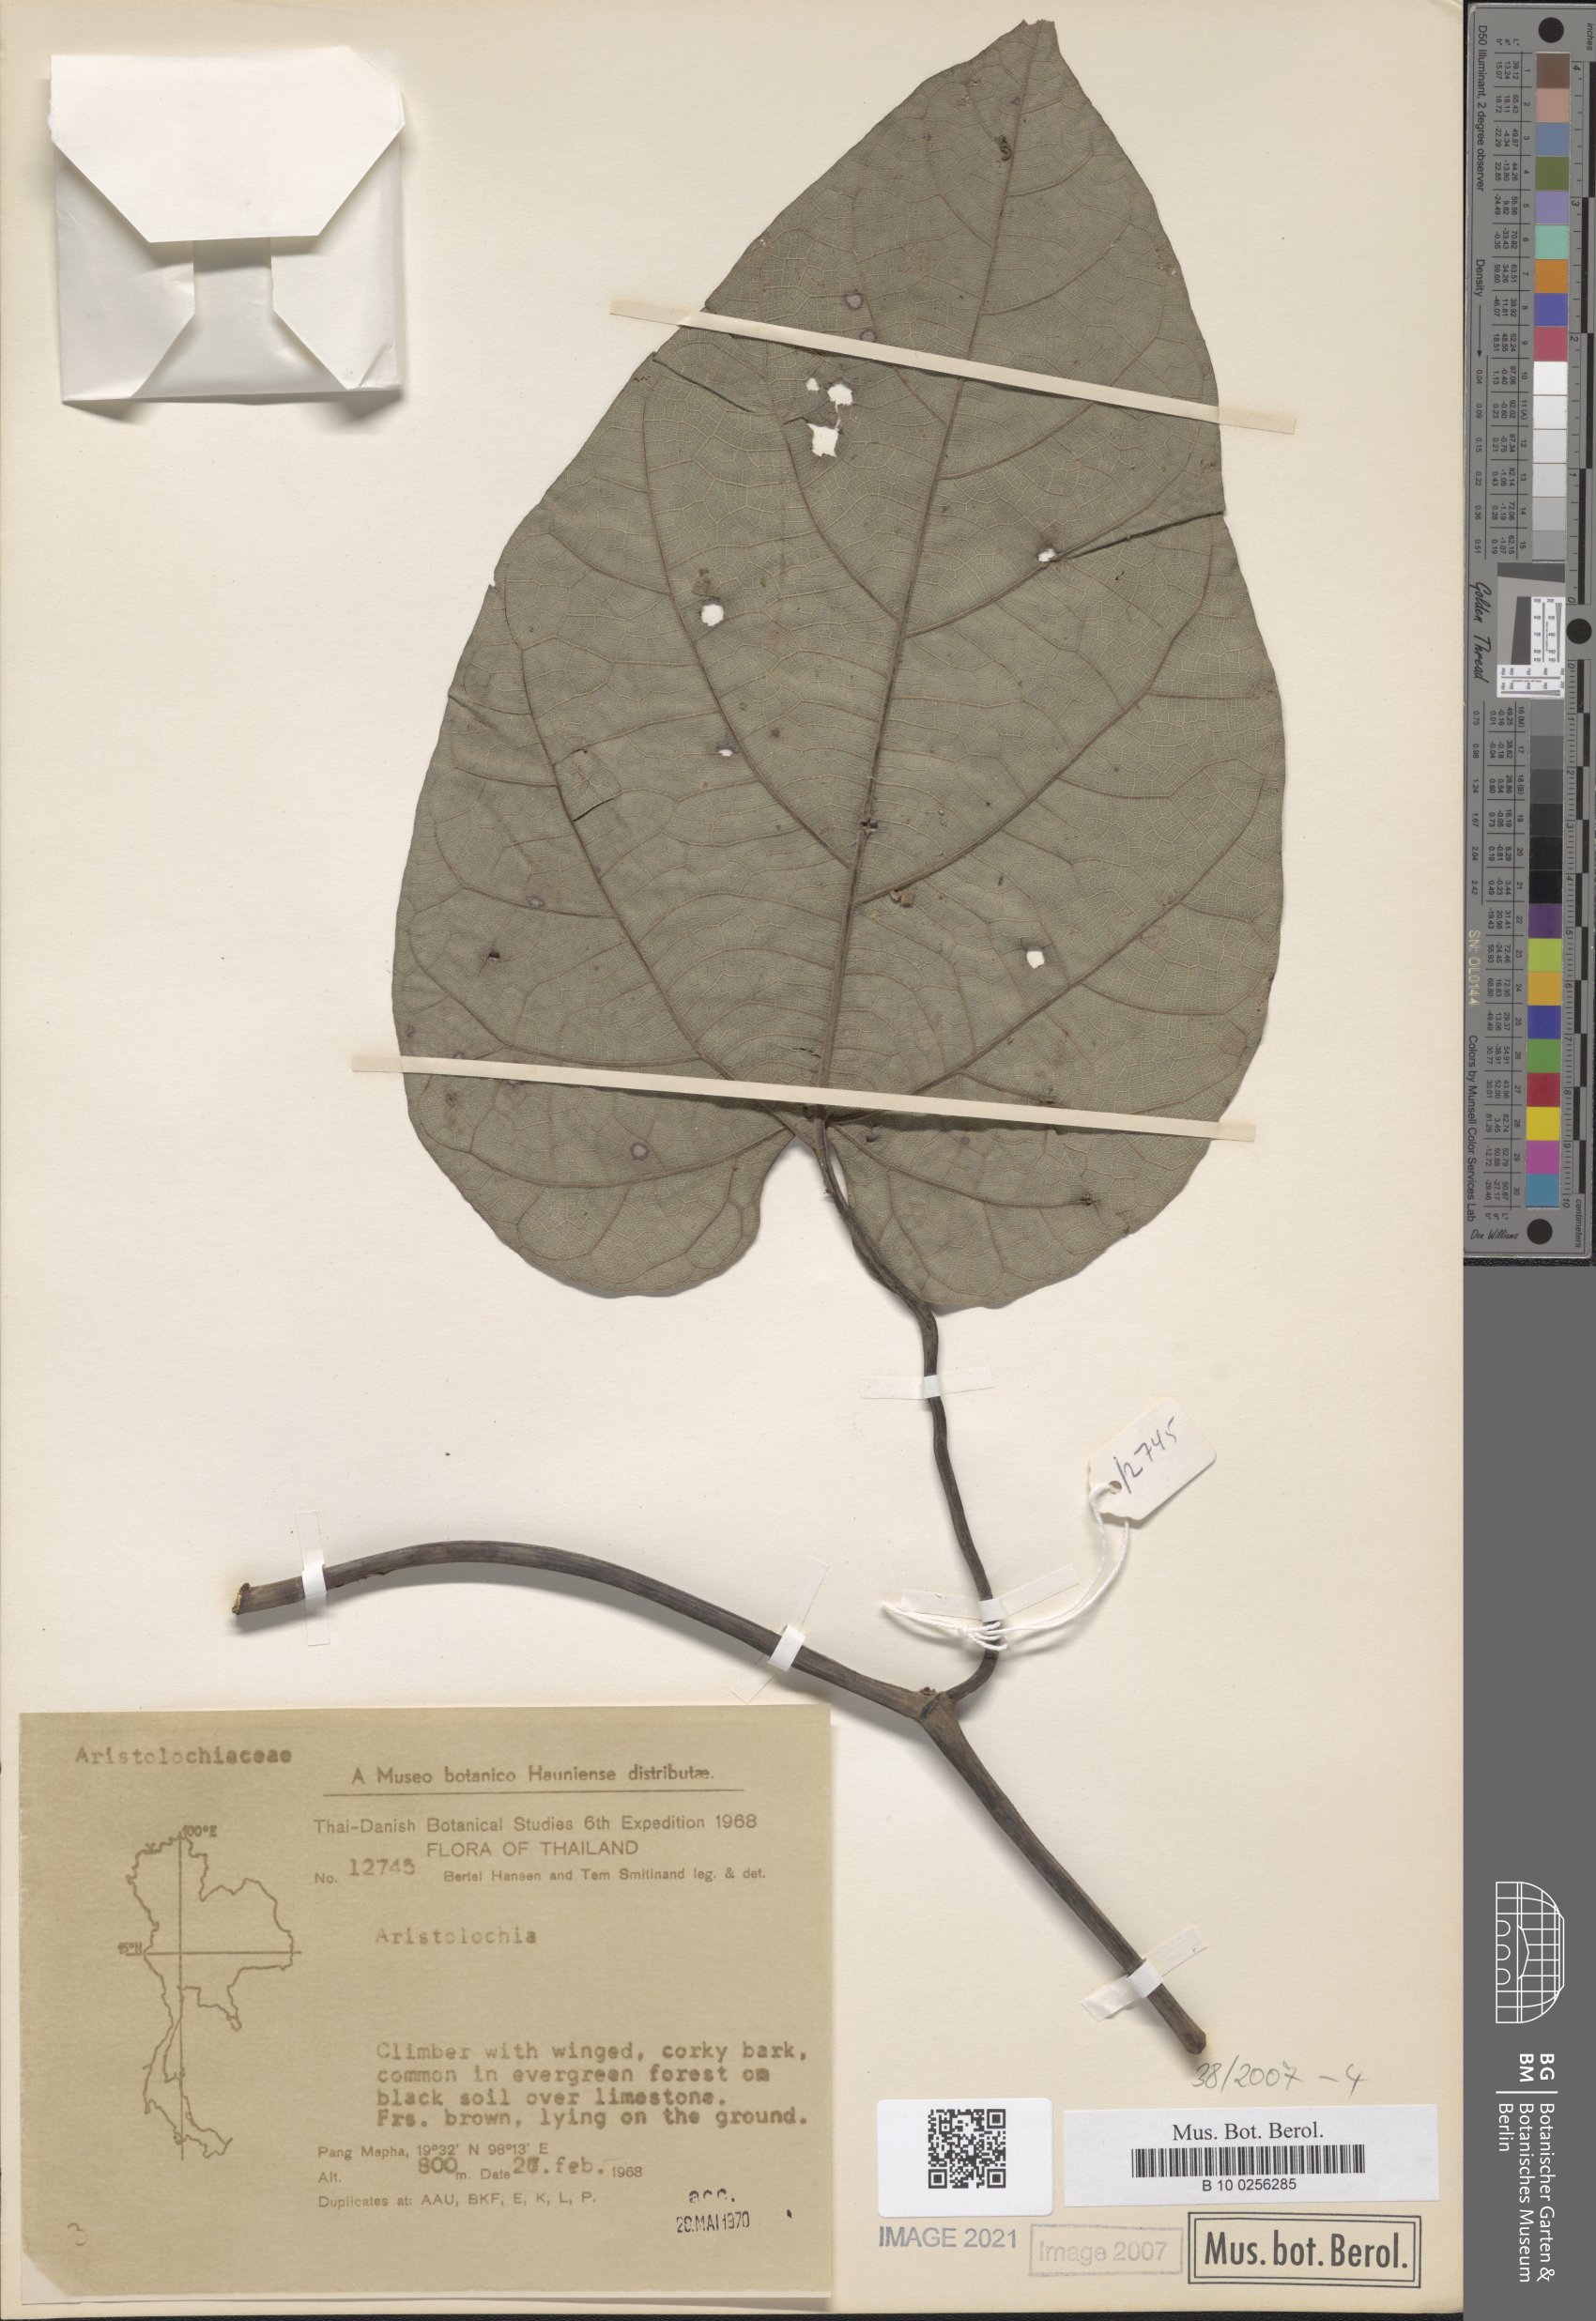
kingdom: Plantae
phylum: Tracheophyta
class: Magnoliopsida
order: Piperales
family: Aristolochiaceae
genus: Aristolochia
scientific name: Aristolochia
